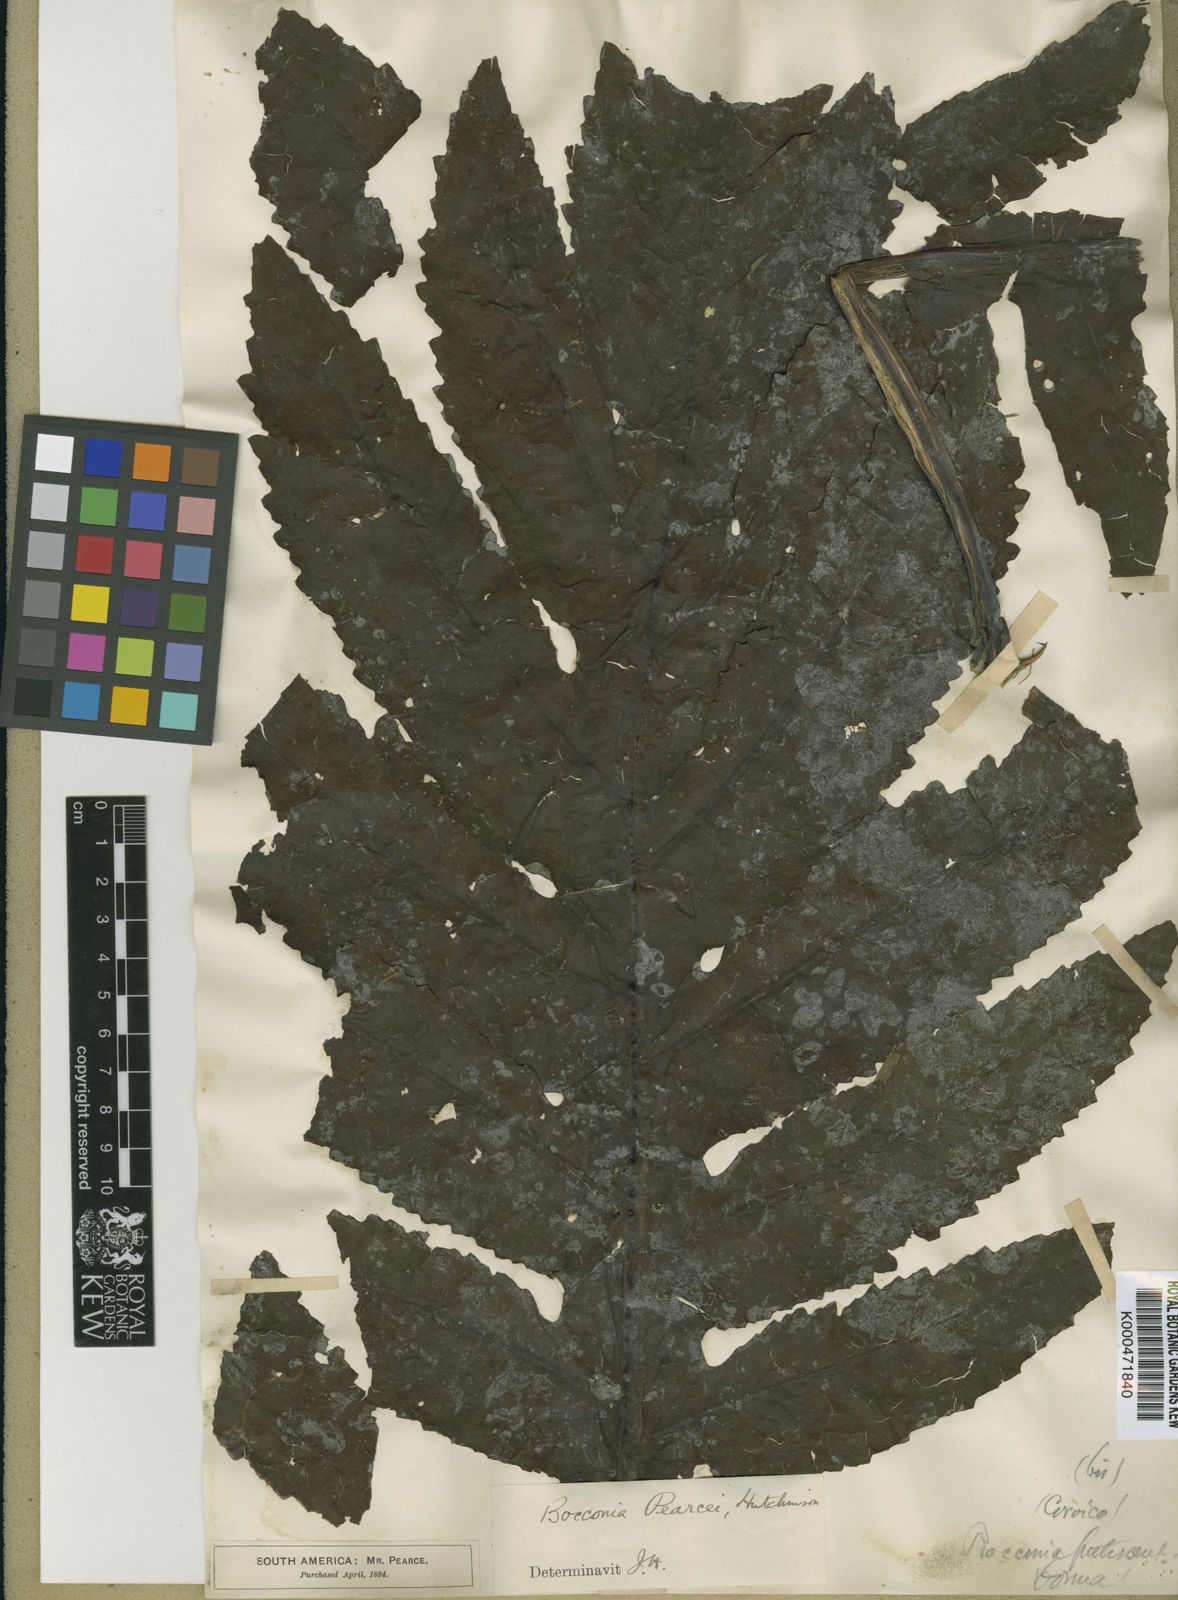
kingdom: Plantae
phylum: Tracheophyta
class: Magnoliopsida
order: Ranunculales
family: Papaveraceae
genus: Bocconia
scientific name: Bocconia integrifolia
